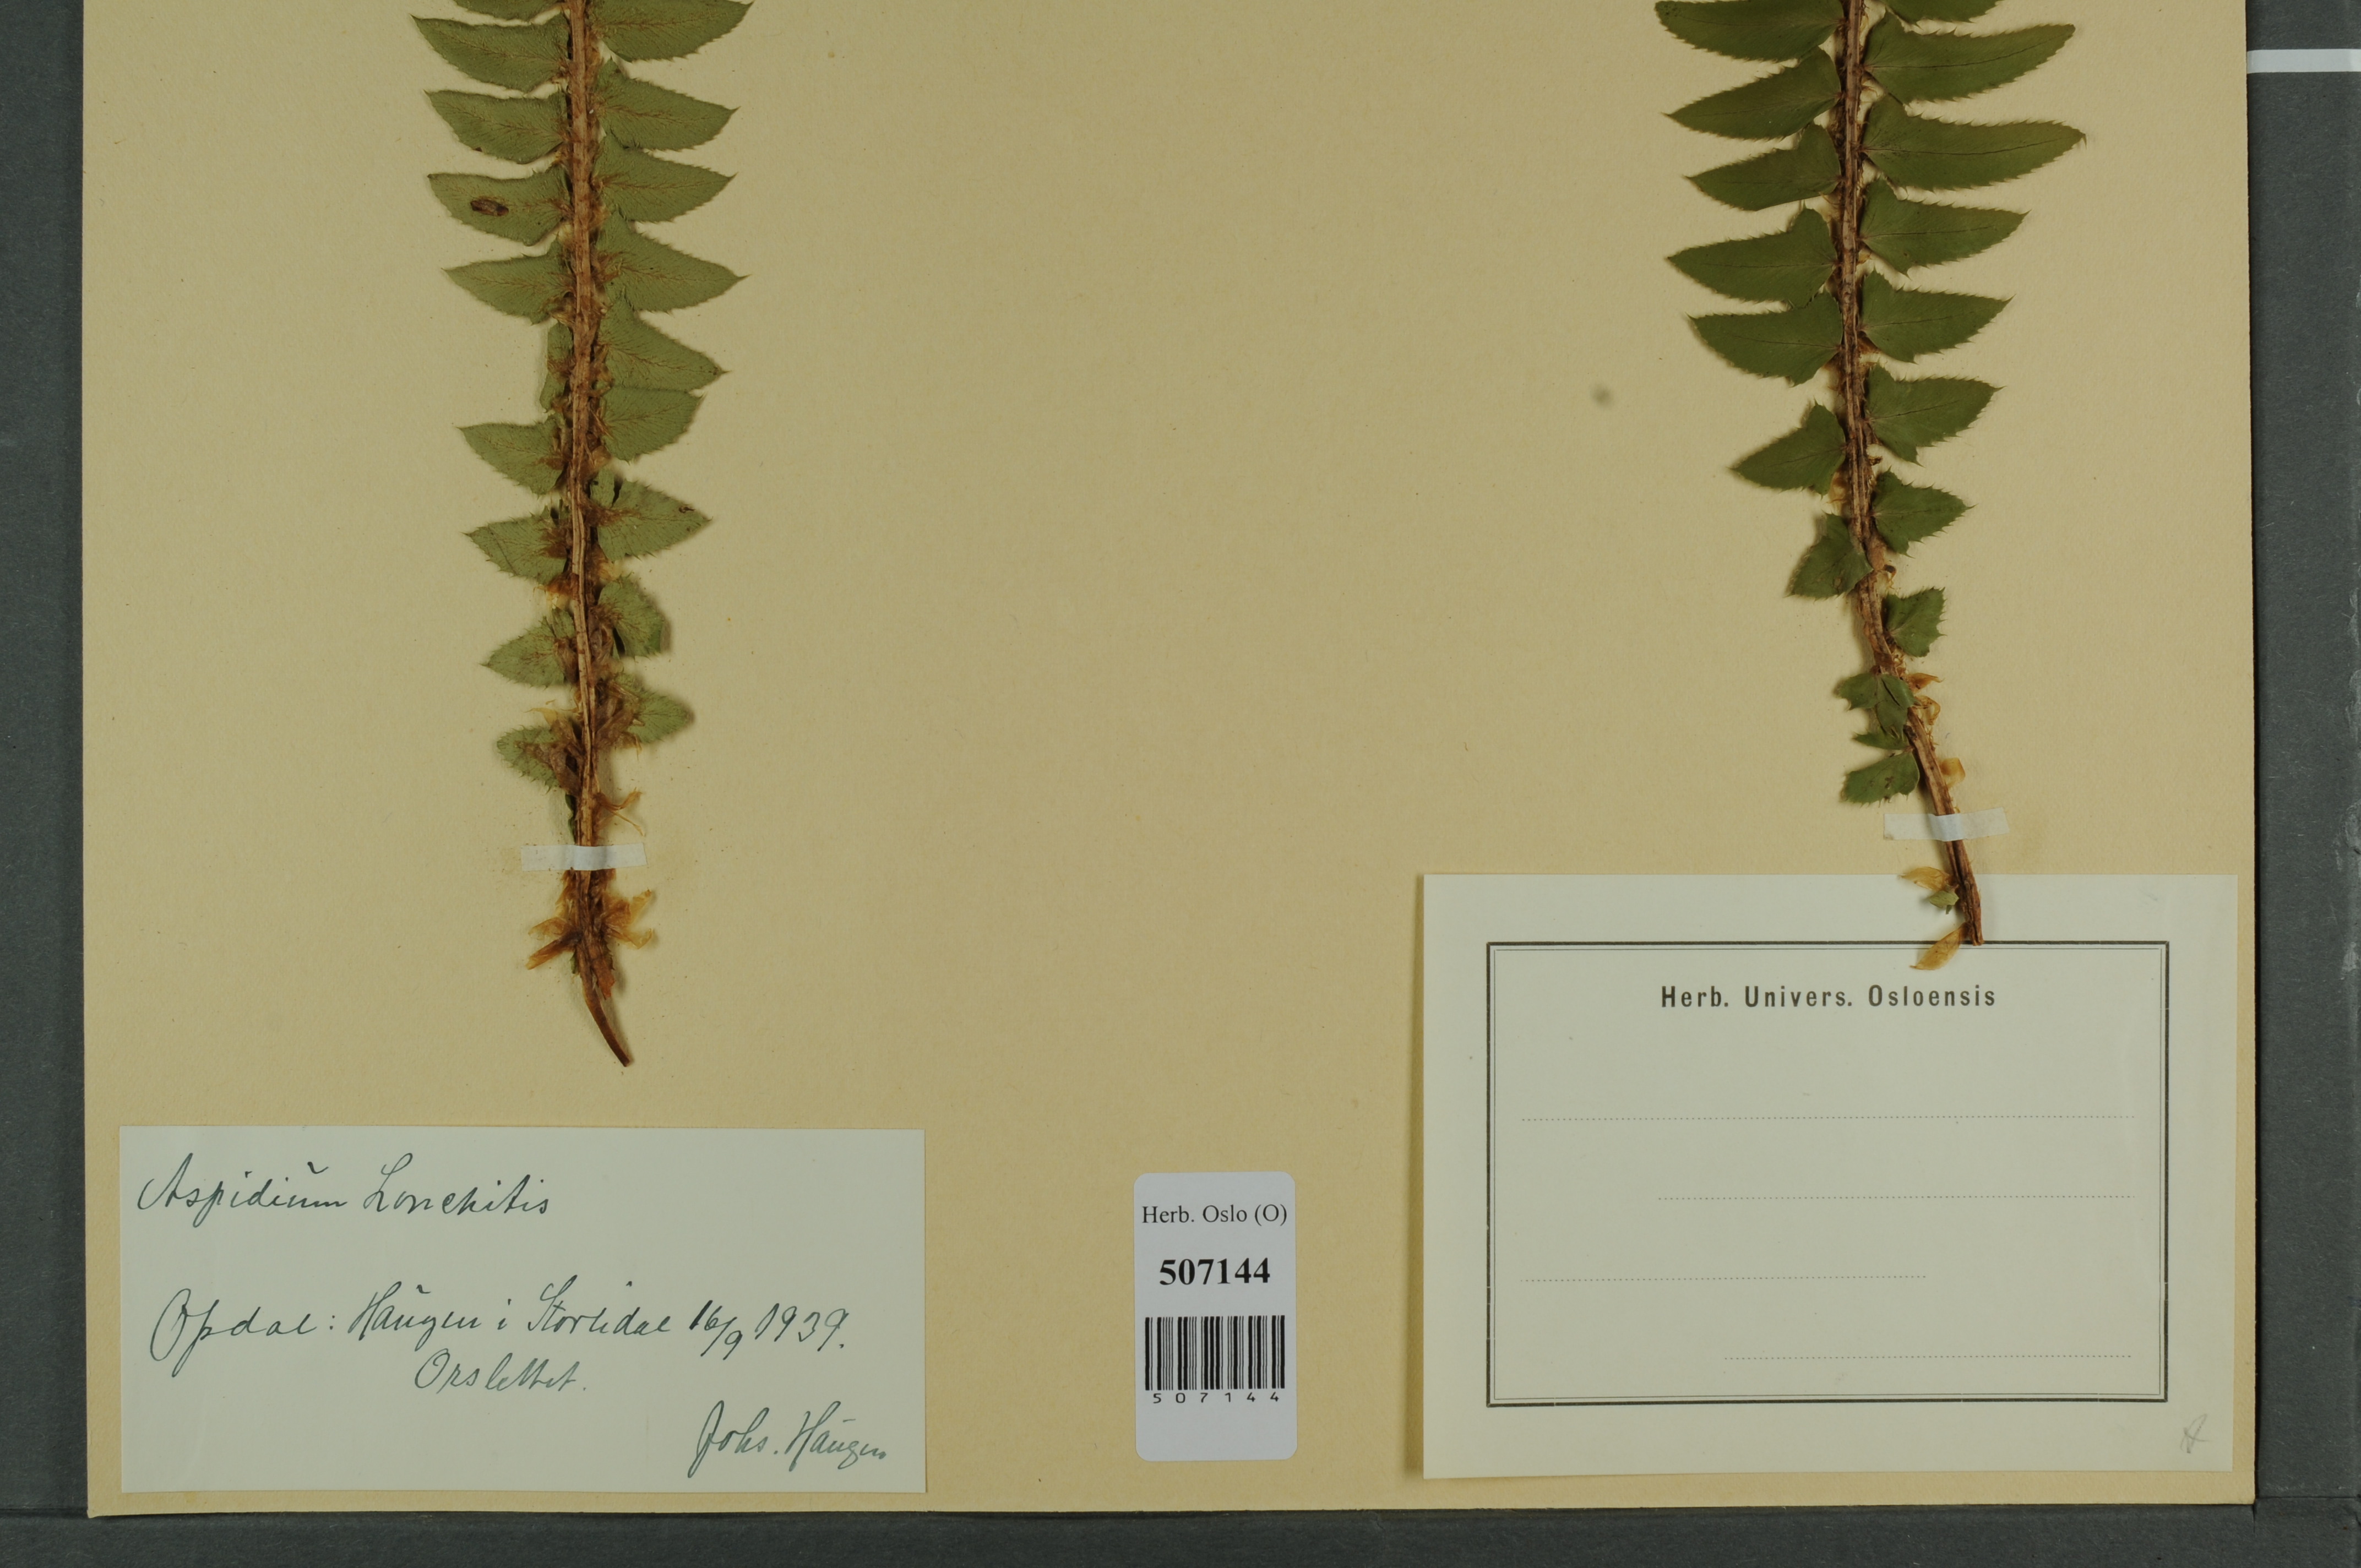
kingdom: Plantae
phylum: Tracheophyta
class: Polypodiopsida
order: Polypodiales
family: Dryopteridaceae
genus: Polystichum
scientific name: Polystichum lonchitis
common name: Holly fern
